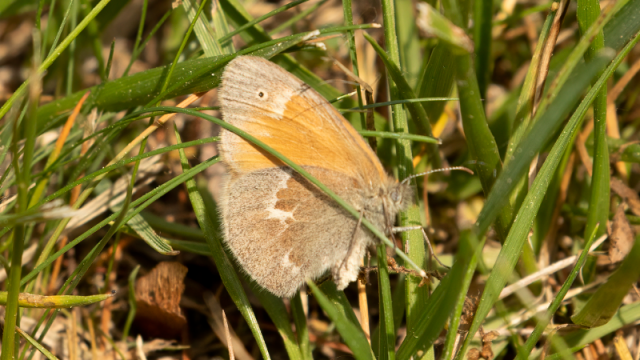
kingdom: Animalia
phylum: Arthropoda
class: Insecta
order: Lepidoptera
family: Nymphalidae
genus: Coenonympha
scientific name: Coenonympha tullia
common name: Large Heath
